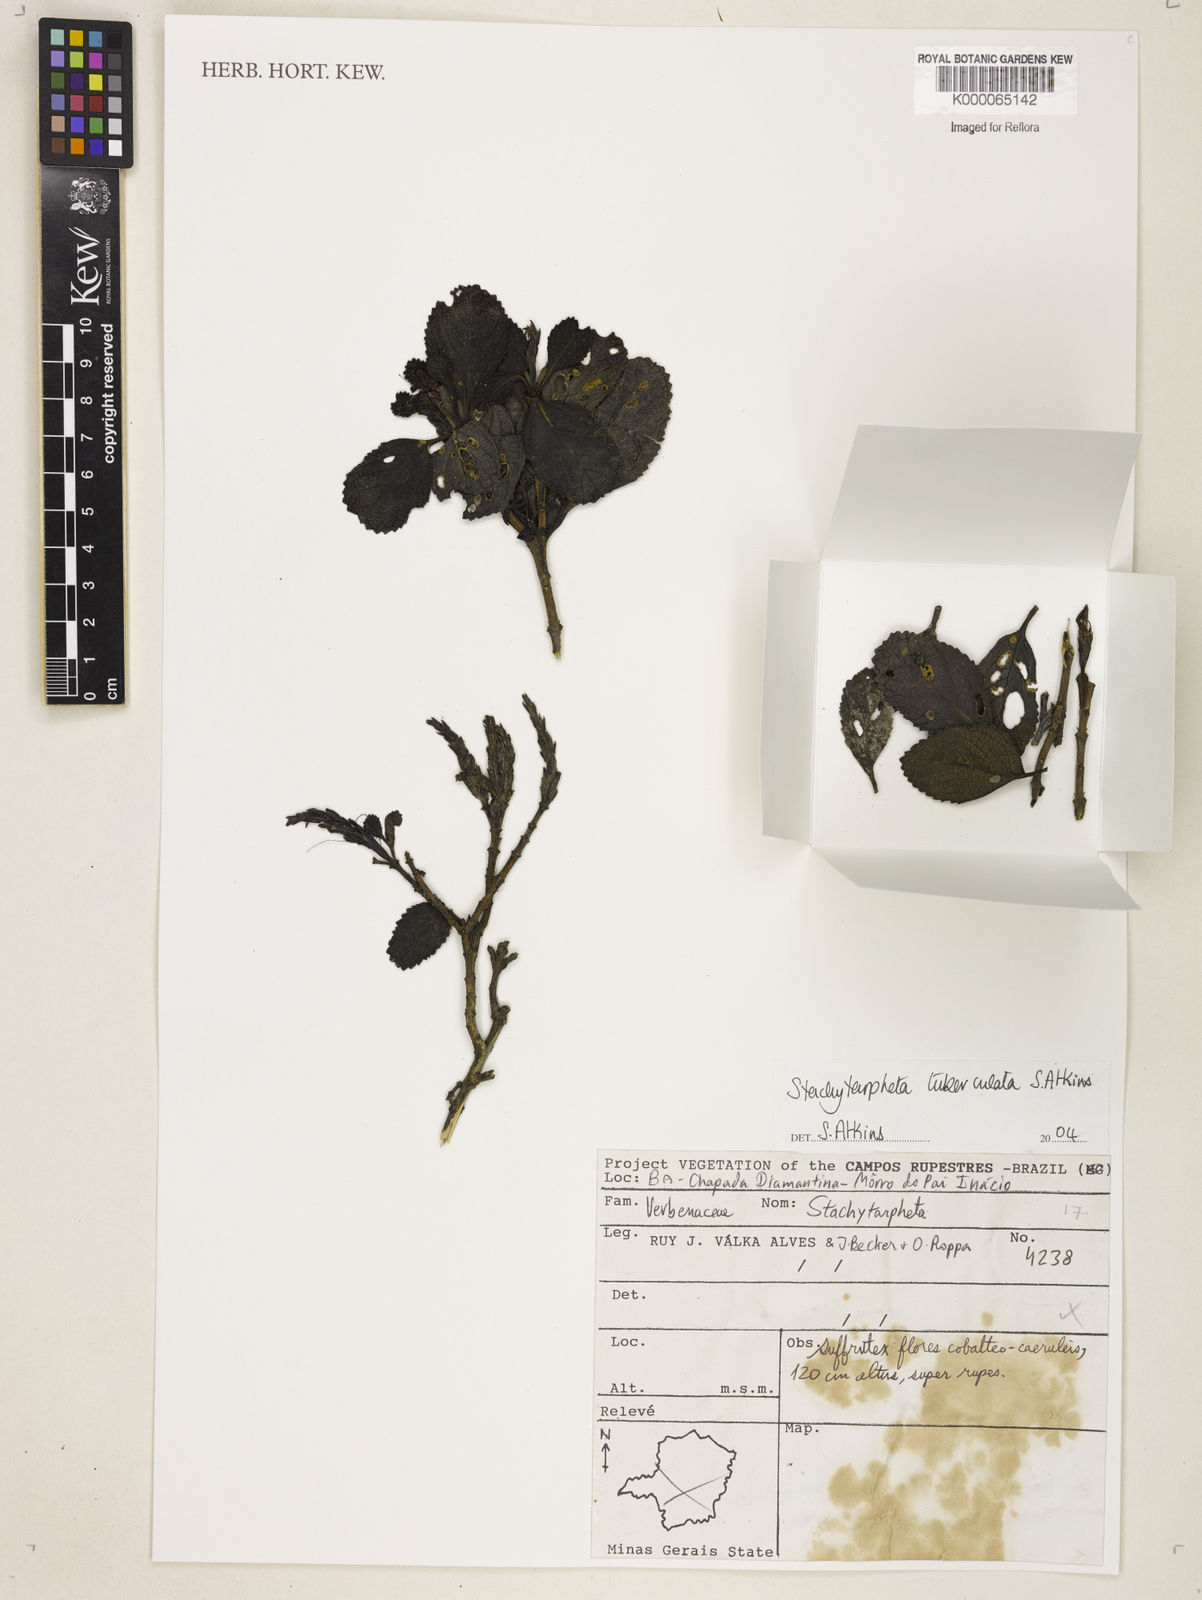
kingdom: Plantae
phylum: Tracheophyta
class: Magnoliopsida
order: Lamiales
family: Verbenaceae
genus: Stachytarpheta
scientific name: Stachytarpheta tuberculata
